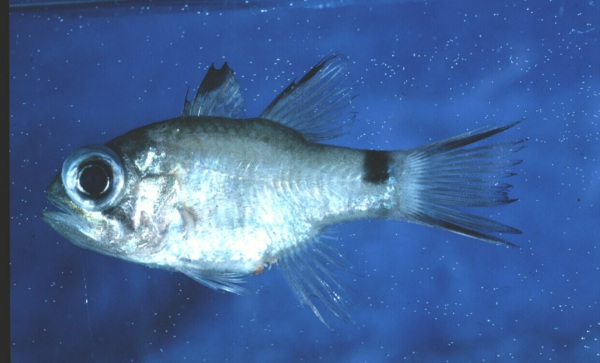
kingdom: Animalia
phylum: Chordata
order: Perciformes
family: Apogonidae
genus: Nectamia
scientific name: Nectamia savayensis
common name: Samoan cardinalfish
